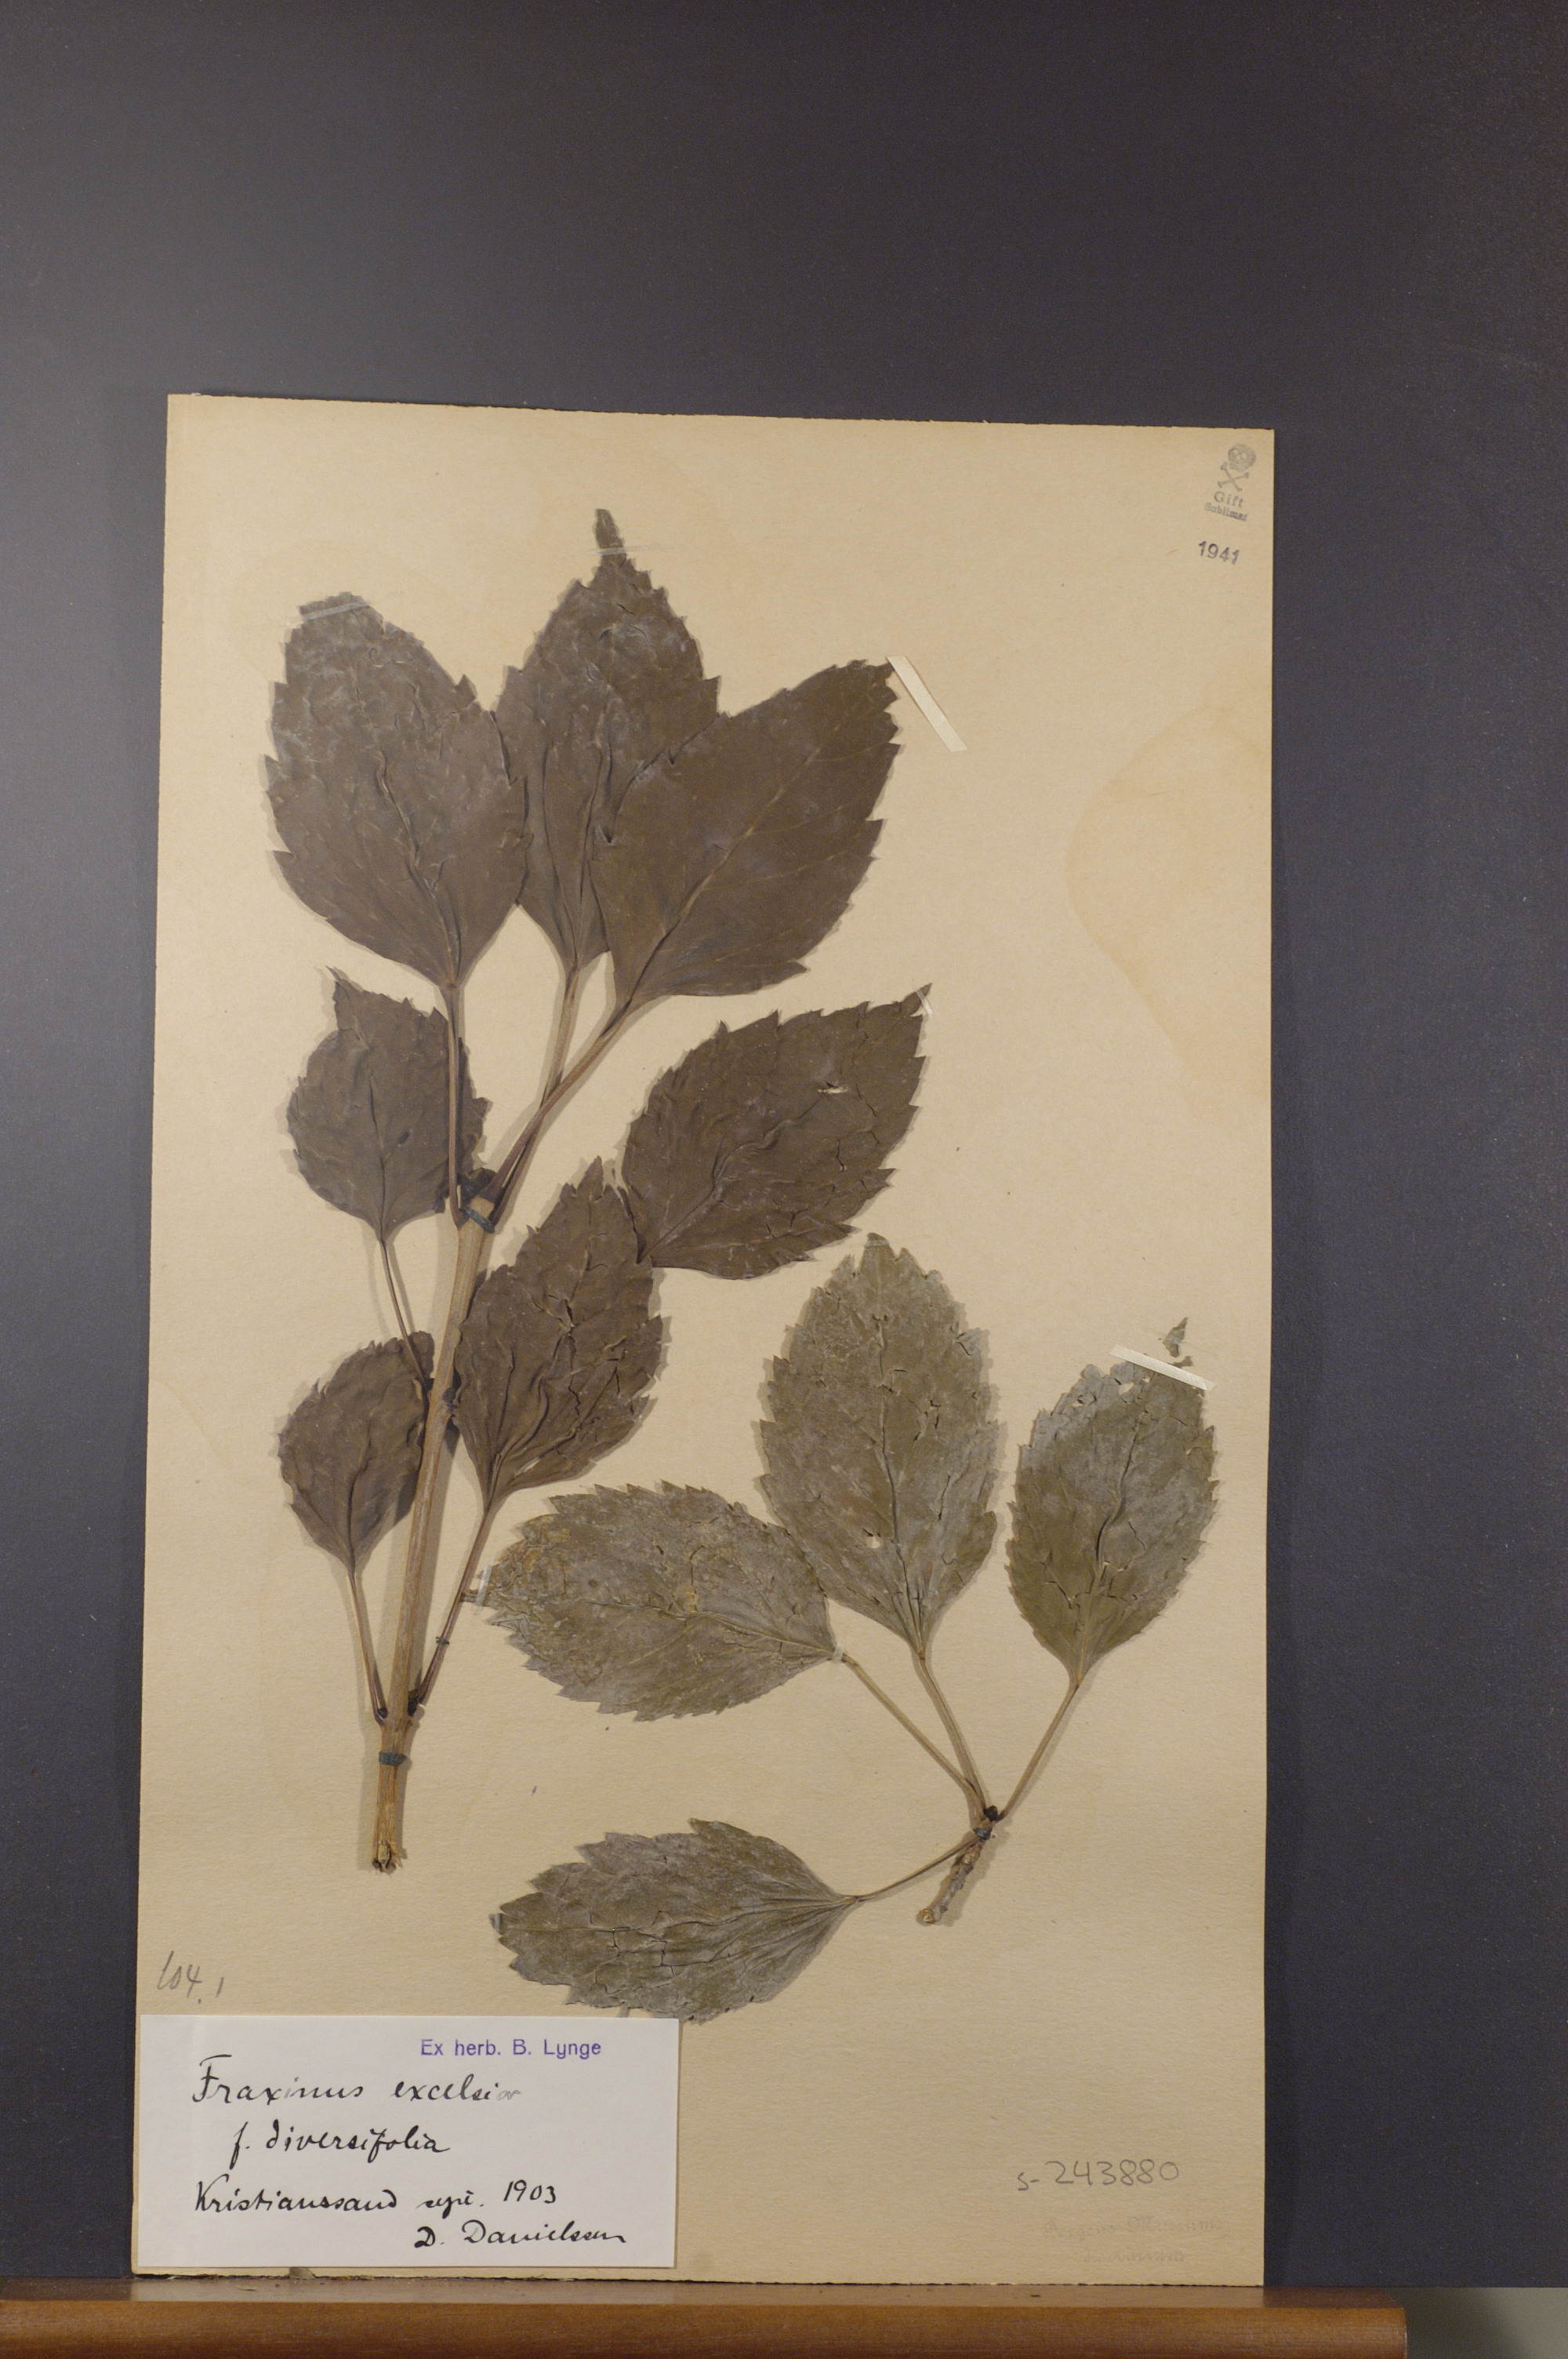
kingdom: Plantae
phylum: Tracheophyta
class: Magnoliopsida
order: Lamiales
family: Oleaceae
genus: Fraxinus
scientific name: Fraxinus excelsior
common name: European ash
